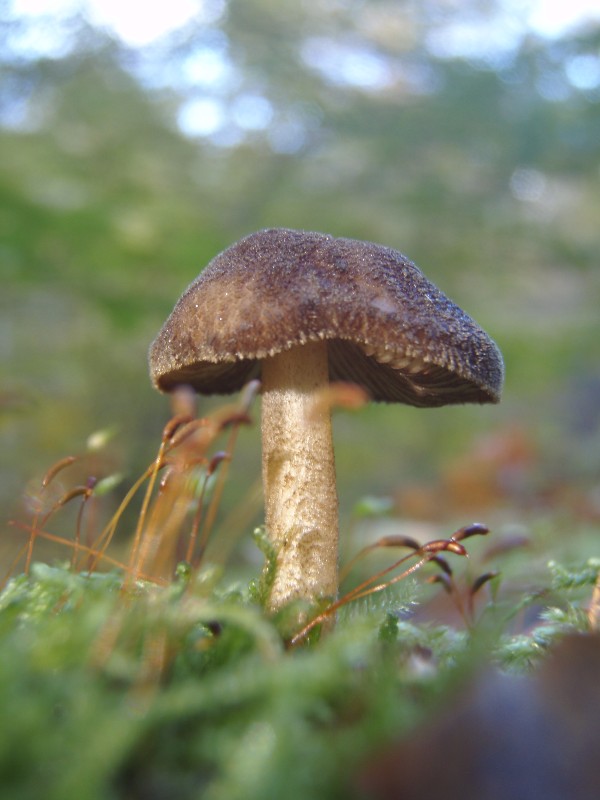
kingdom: Fungi
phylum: Basidiomycota
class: Agaricomycetes
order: Agaricales
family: Pluteaceae
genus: Pluteus
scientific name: Pluteus umbrosus
